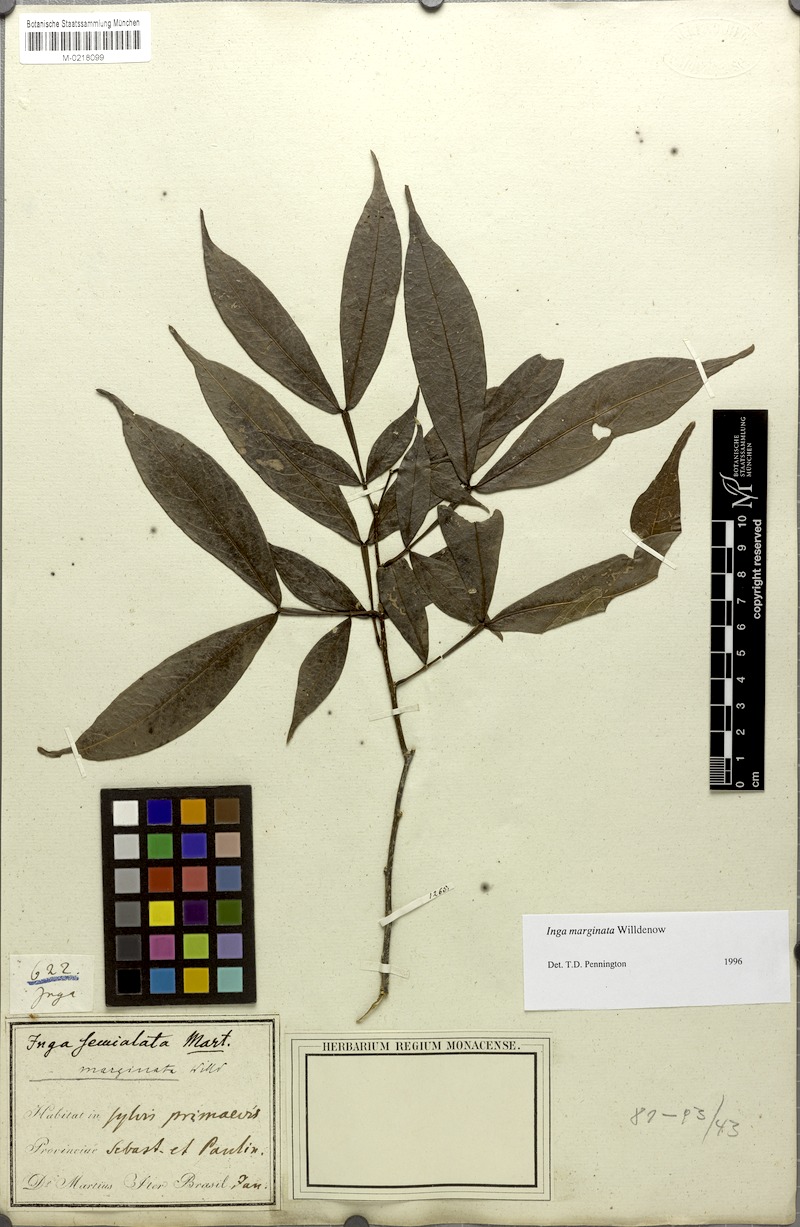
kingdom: Plantae
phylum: Tracheophyta
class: Magnoliopsida
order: Fabales
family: Fabaceae
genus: Inga
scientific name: Inga marginata
